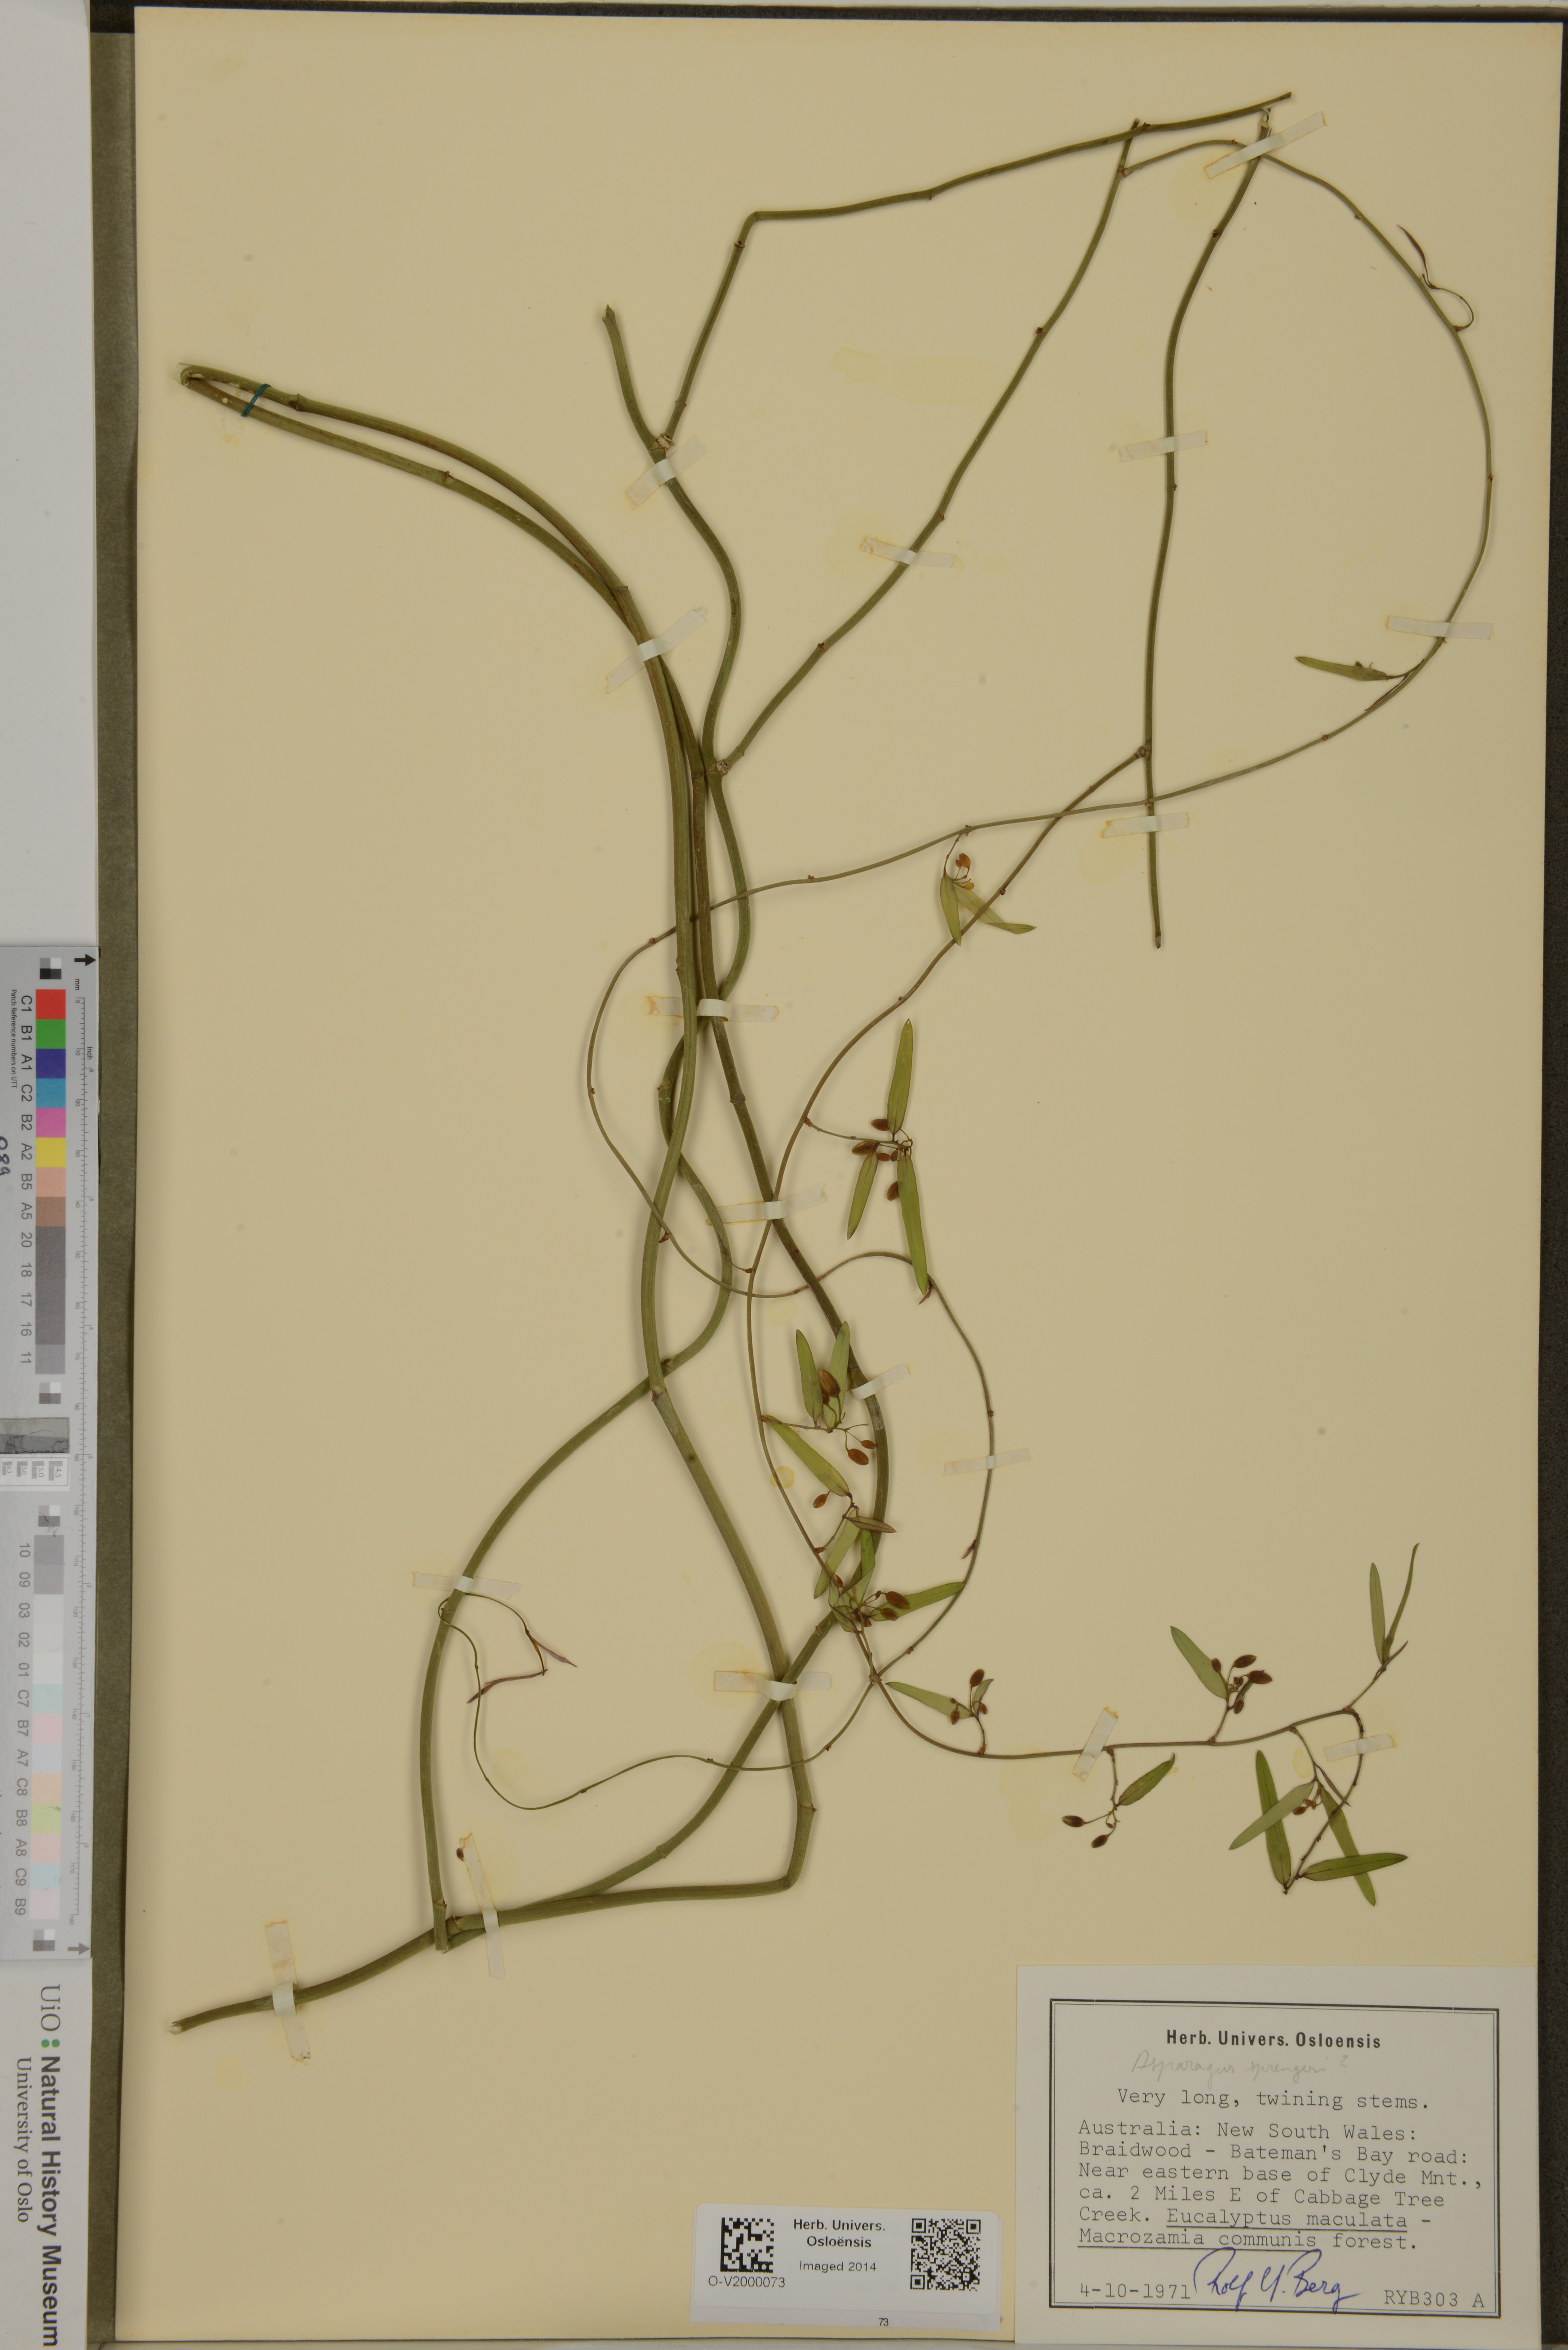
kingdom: Plantae
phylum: Tracheophyta
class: Liliopsida
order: Asparagales
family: Asparagaceae
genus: Asparagus
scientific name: Asparagus densiflorus
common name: Asparagus fern
